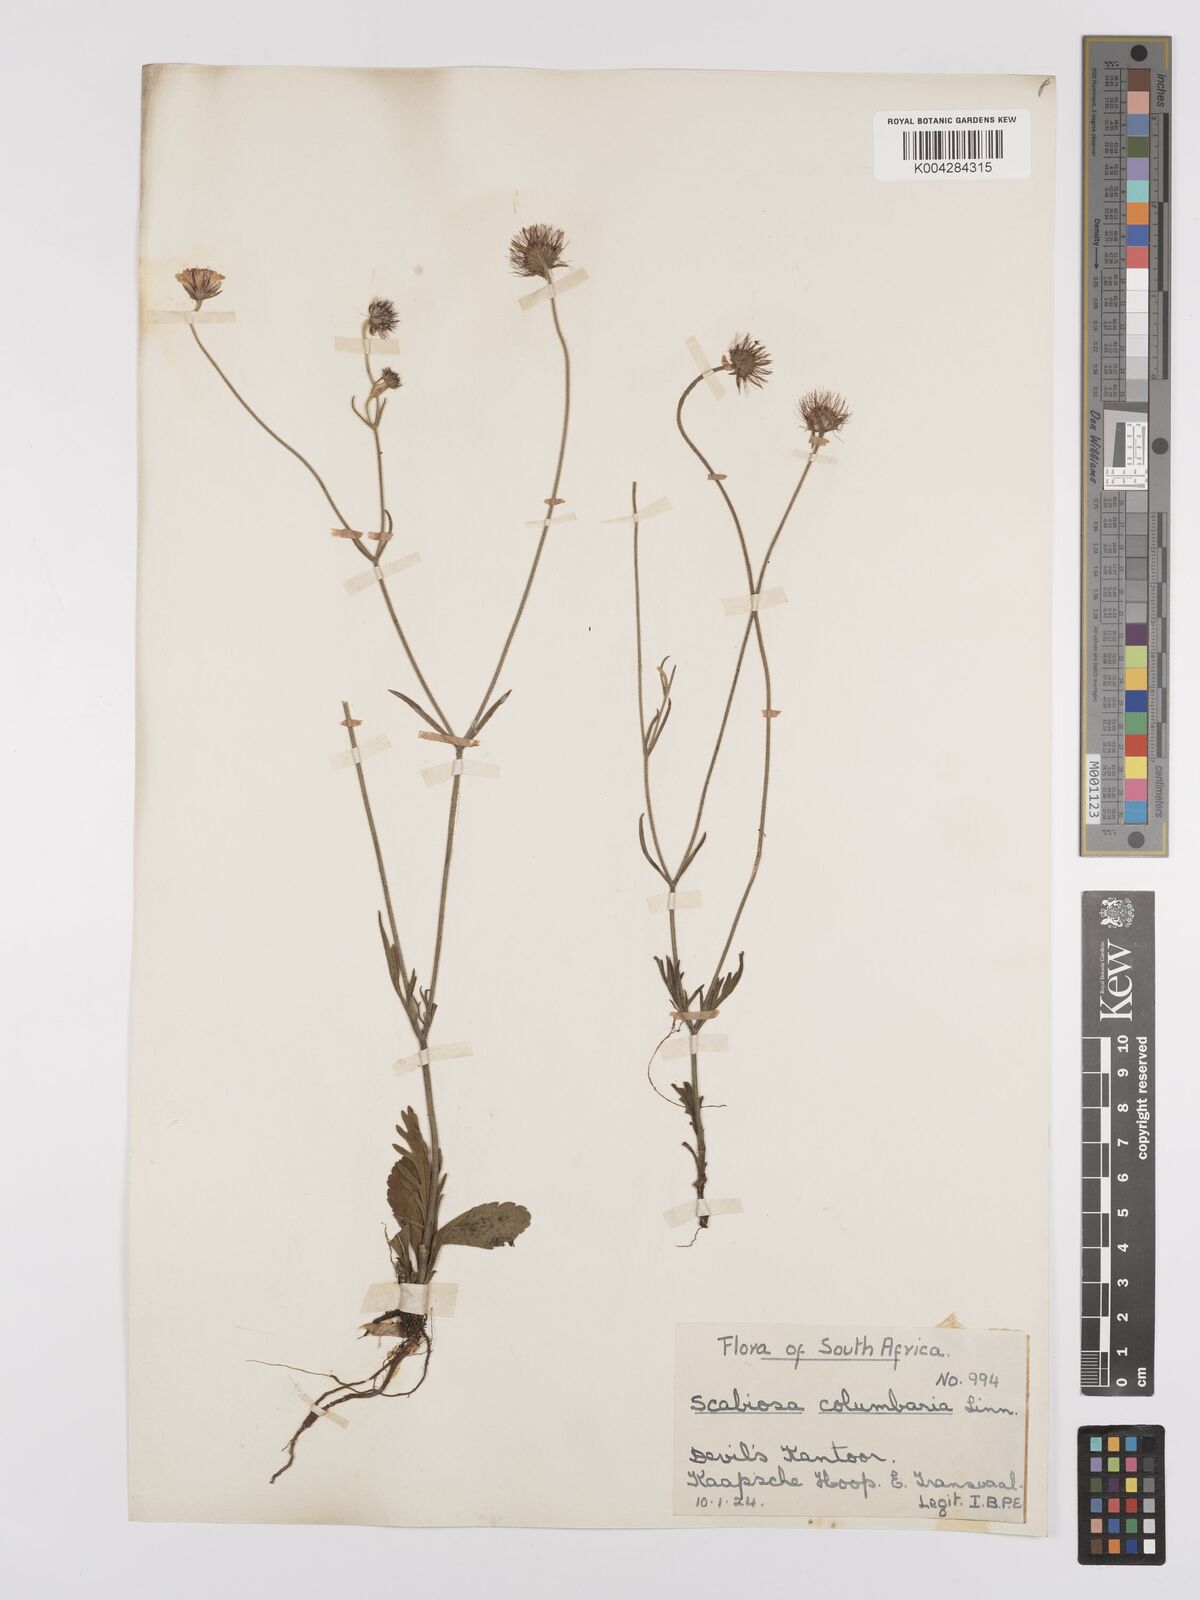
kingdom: Plantae
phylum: Tracheophyta
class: Magnoliopsida
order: Dipsacales
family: Caprifoliaceae
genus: Scabiosa
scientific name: Scabiosa austroafricana
